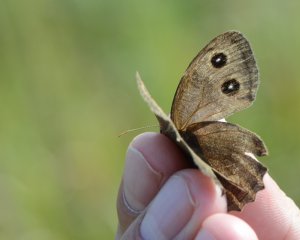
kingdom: Animalia
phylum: Arthropoda
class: Insecta
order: Lepidoptera
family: Nymphalidae
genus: Cercyonis
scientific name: Cercyonis pegala
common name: Common Wood-Nymph
